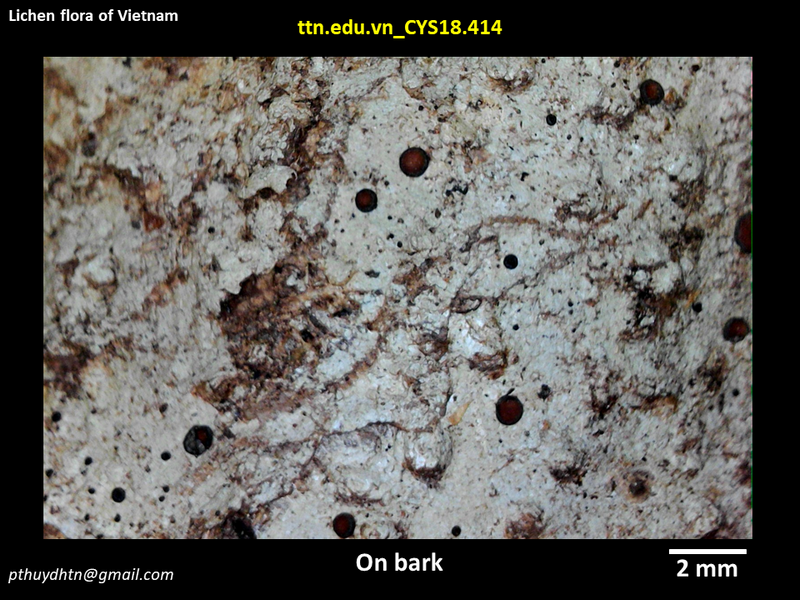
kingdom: Fungi
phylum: Ascomycota
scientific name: Ascomycota
